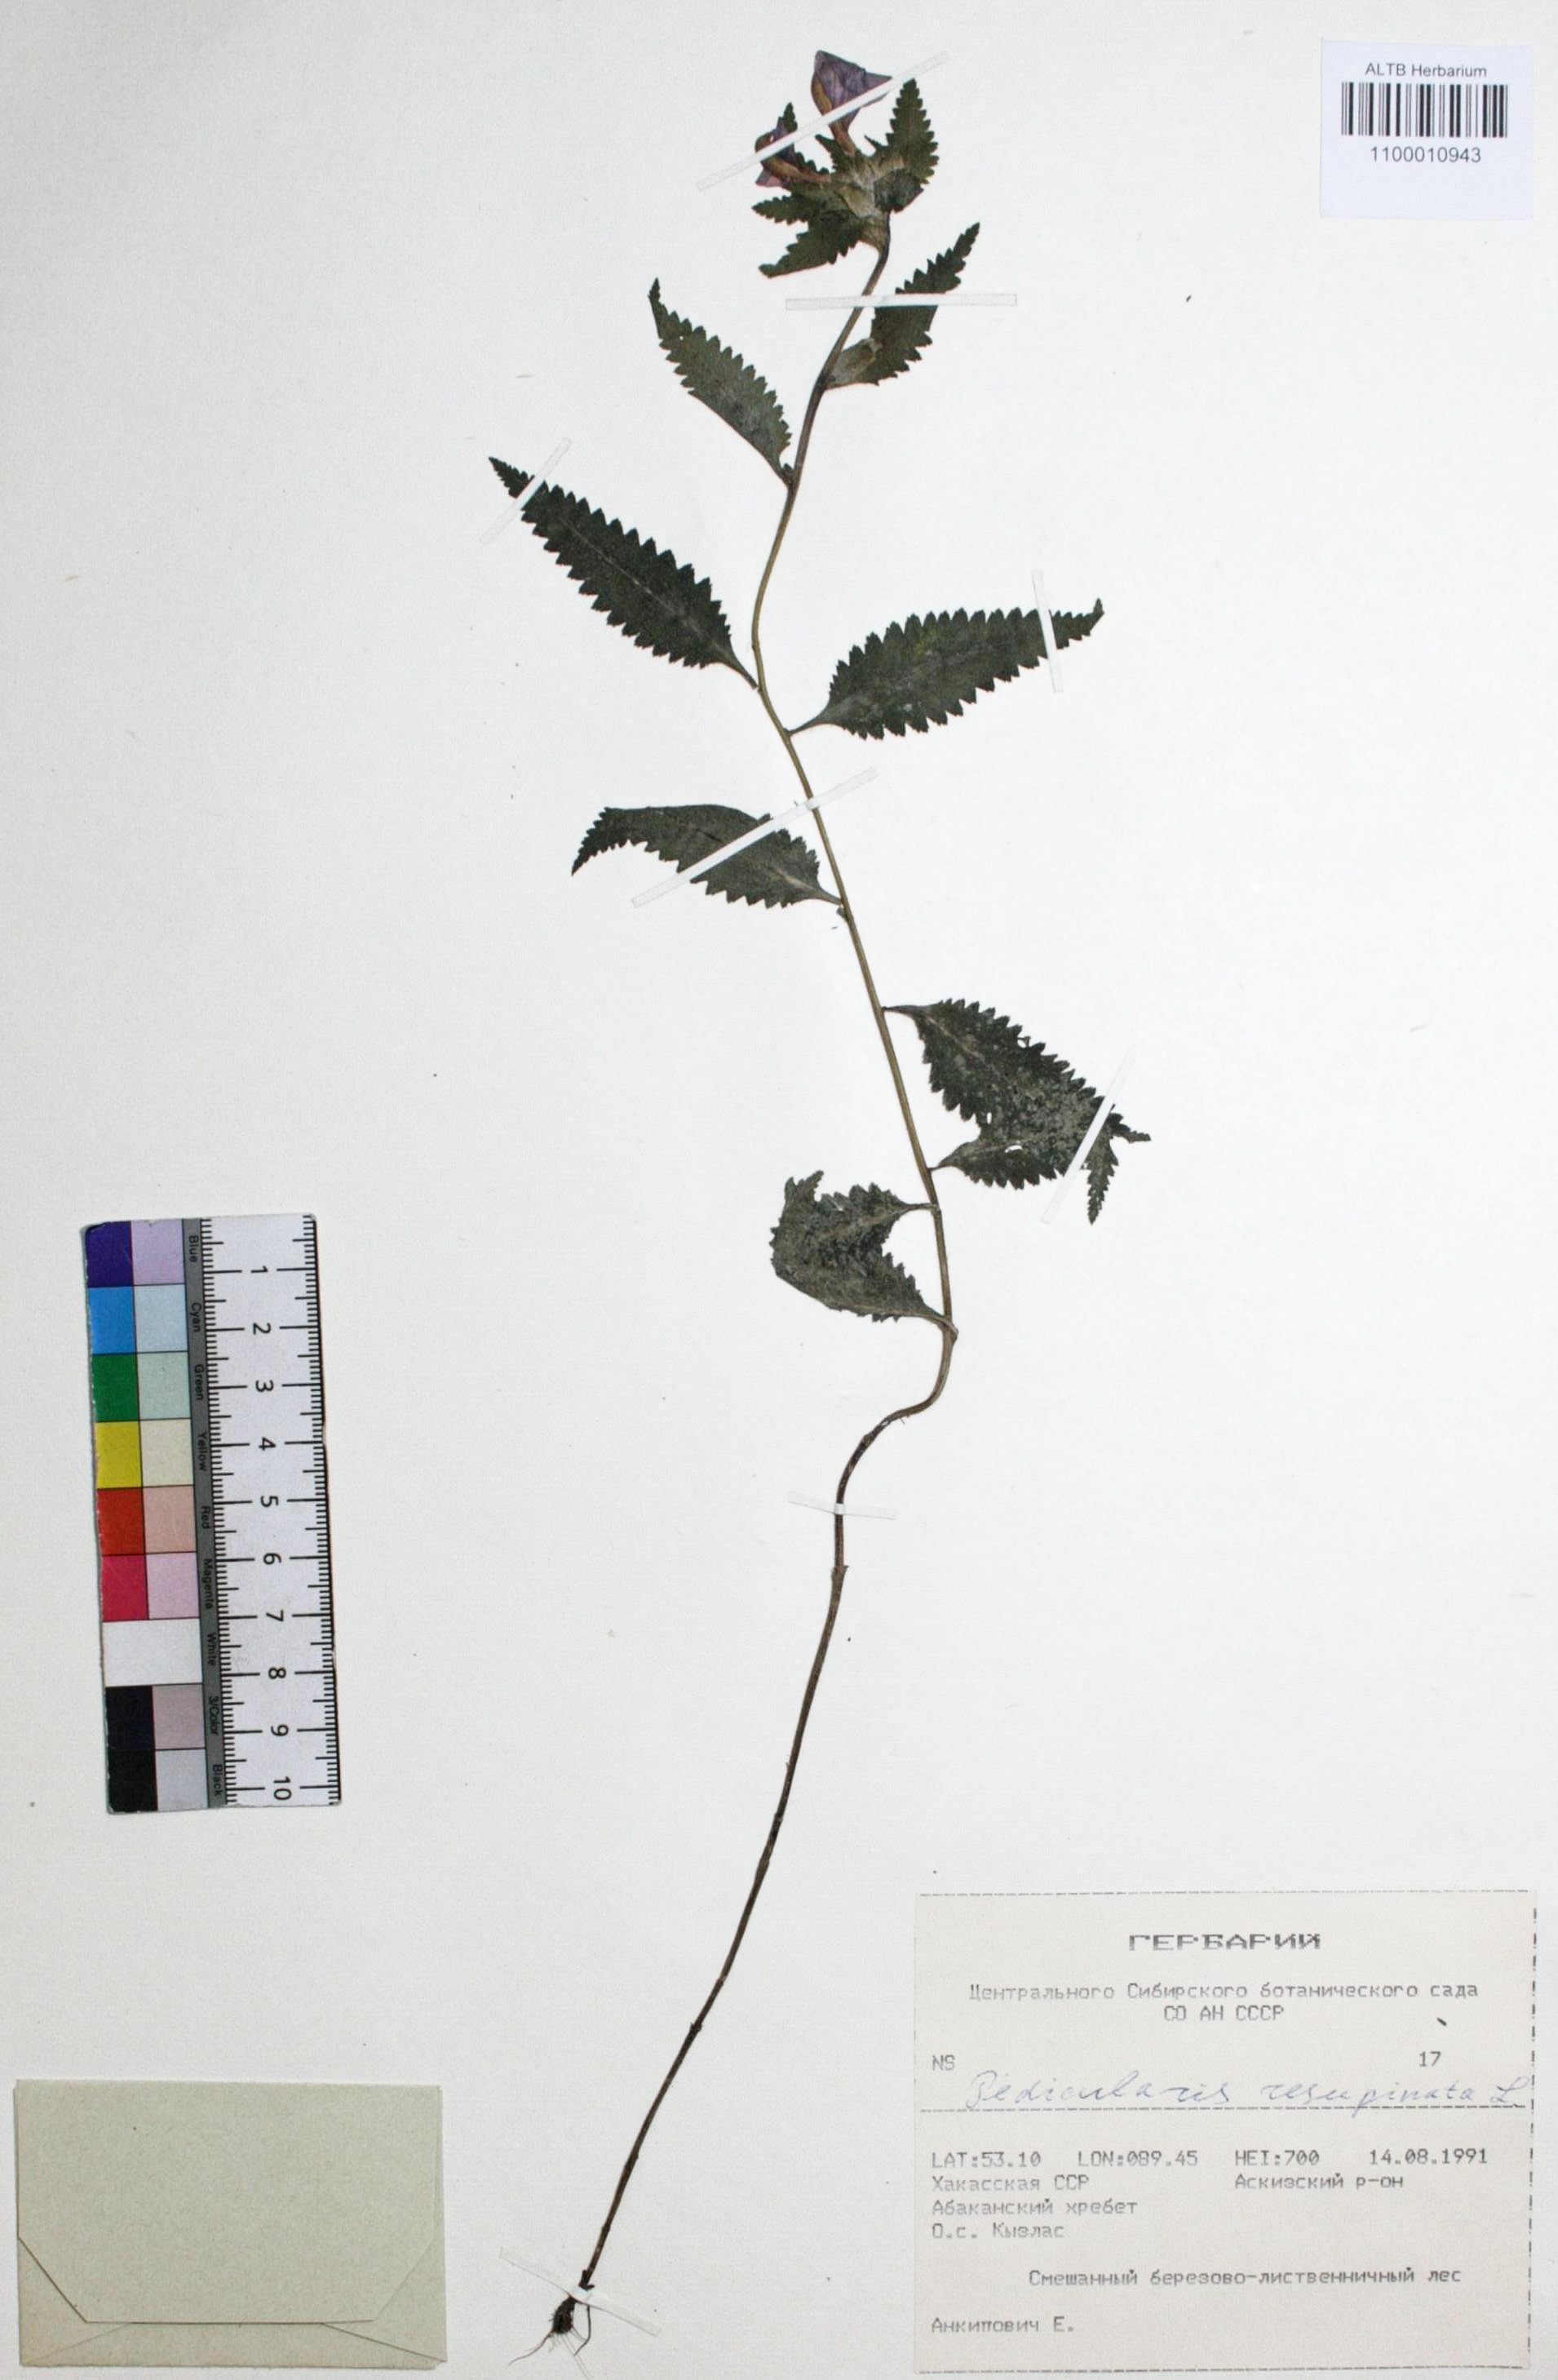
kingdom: Plantae
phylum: Tracheophyta
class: Magnoliopsida
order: Lamiales
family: Orobanchaceae
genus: Pedicularis
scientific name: Pedicularis resupinata
